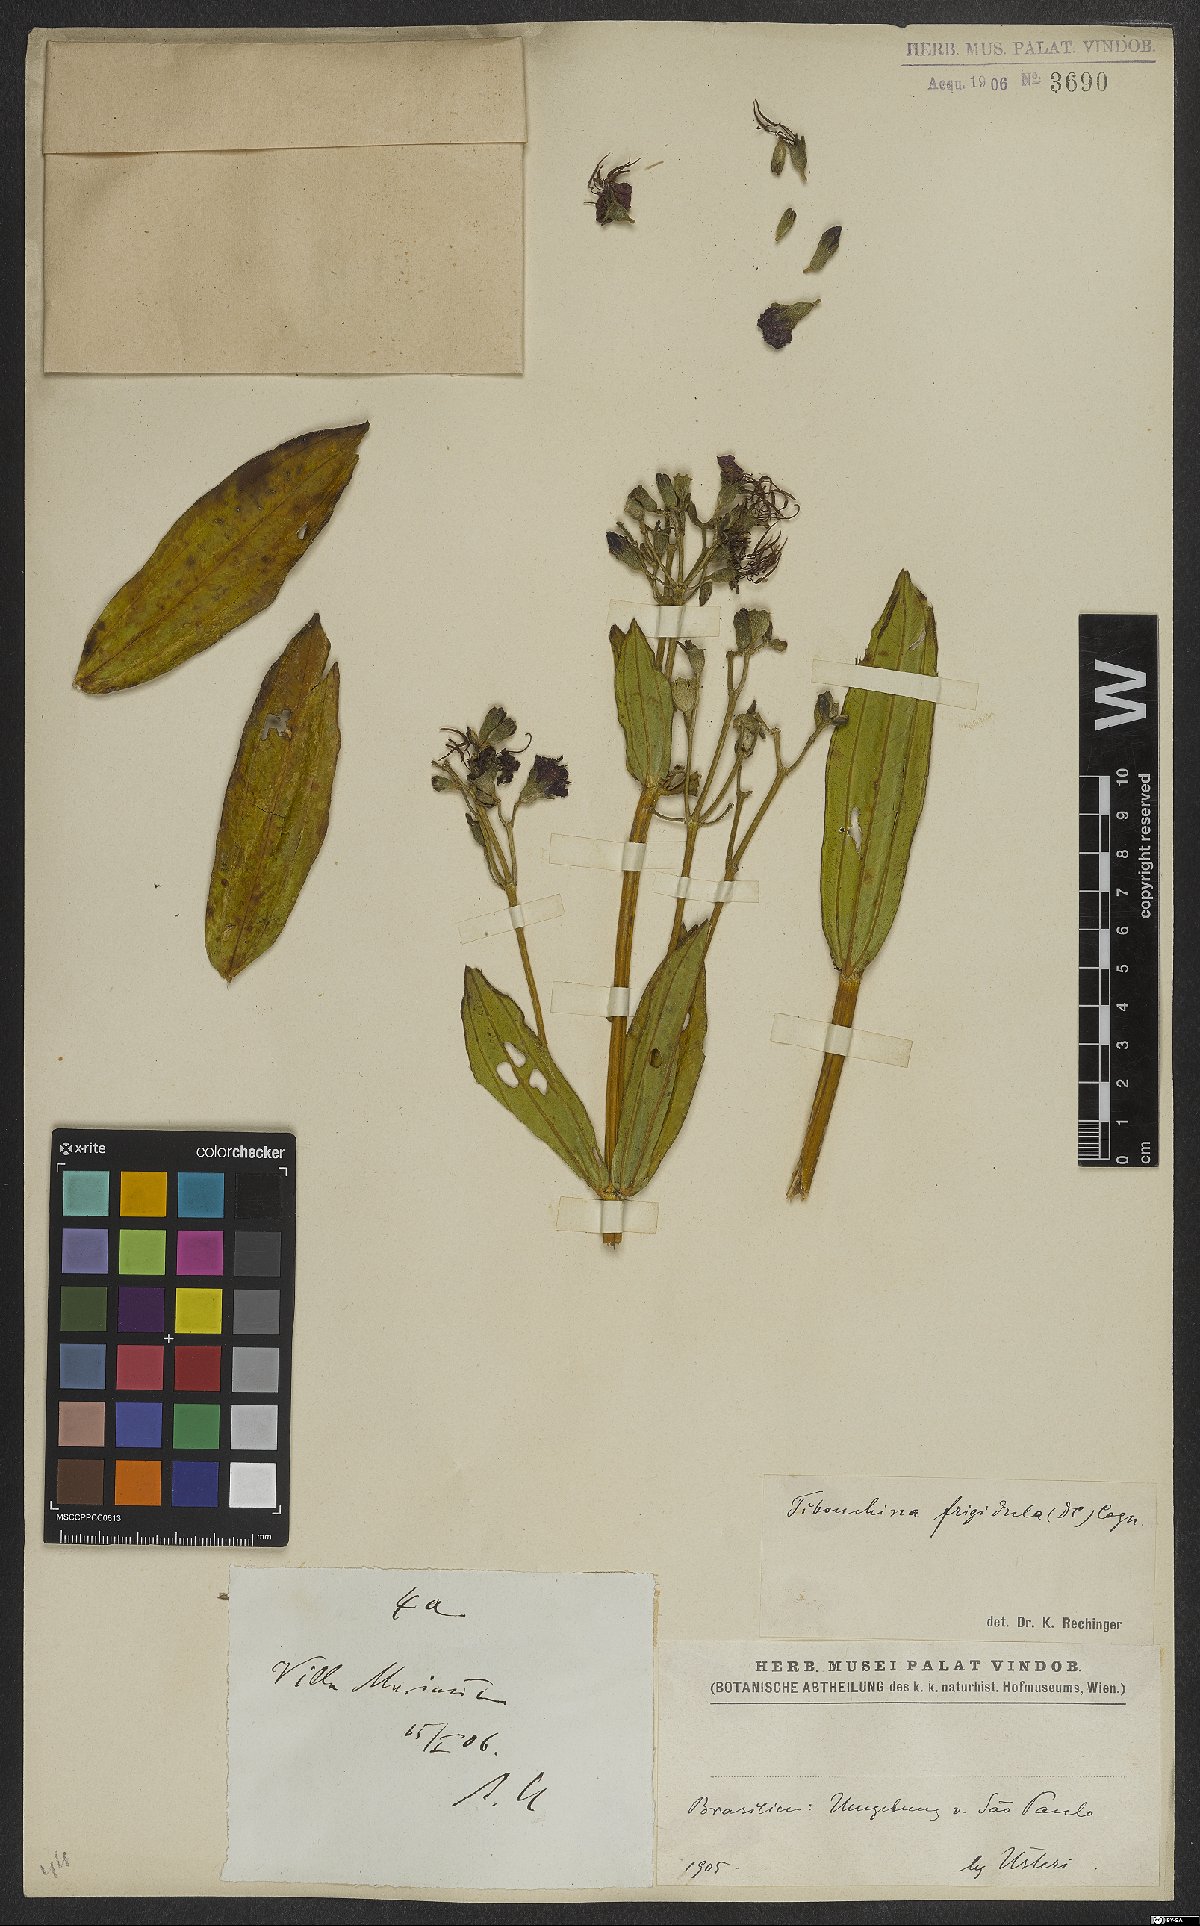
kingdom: Plantae
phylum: Tracheophyta
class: Magnoliopsida
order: Myrtales
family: Melastomataceae
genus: Pleroma
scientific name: Pleroma martiusianum
